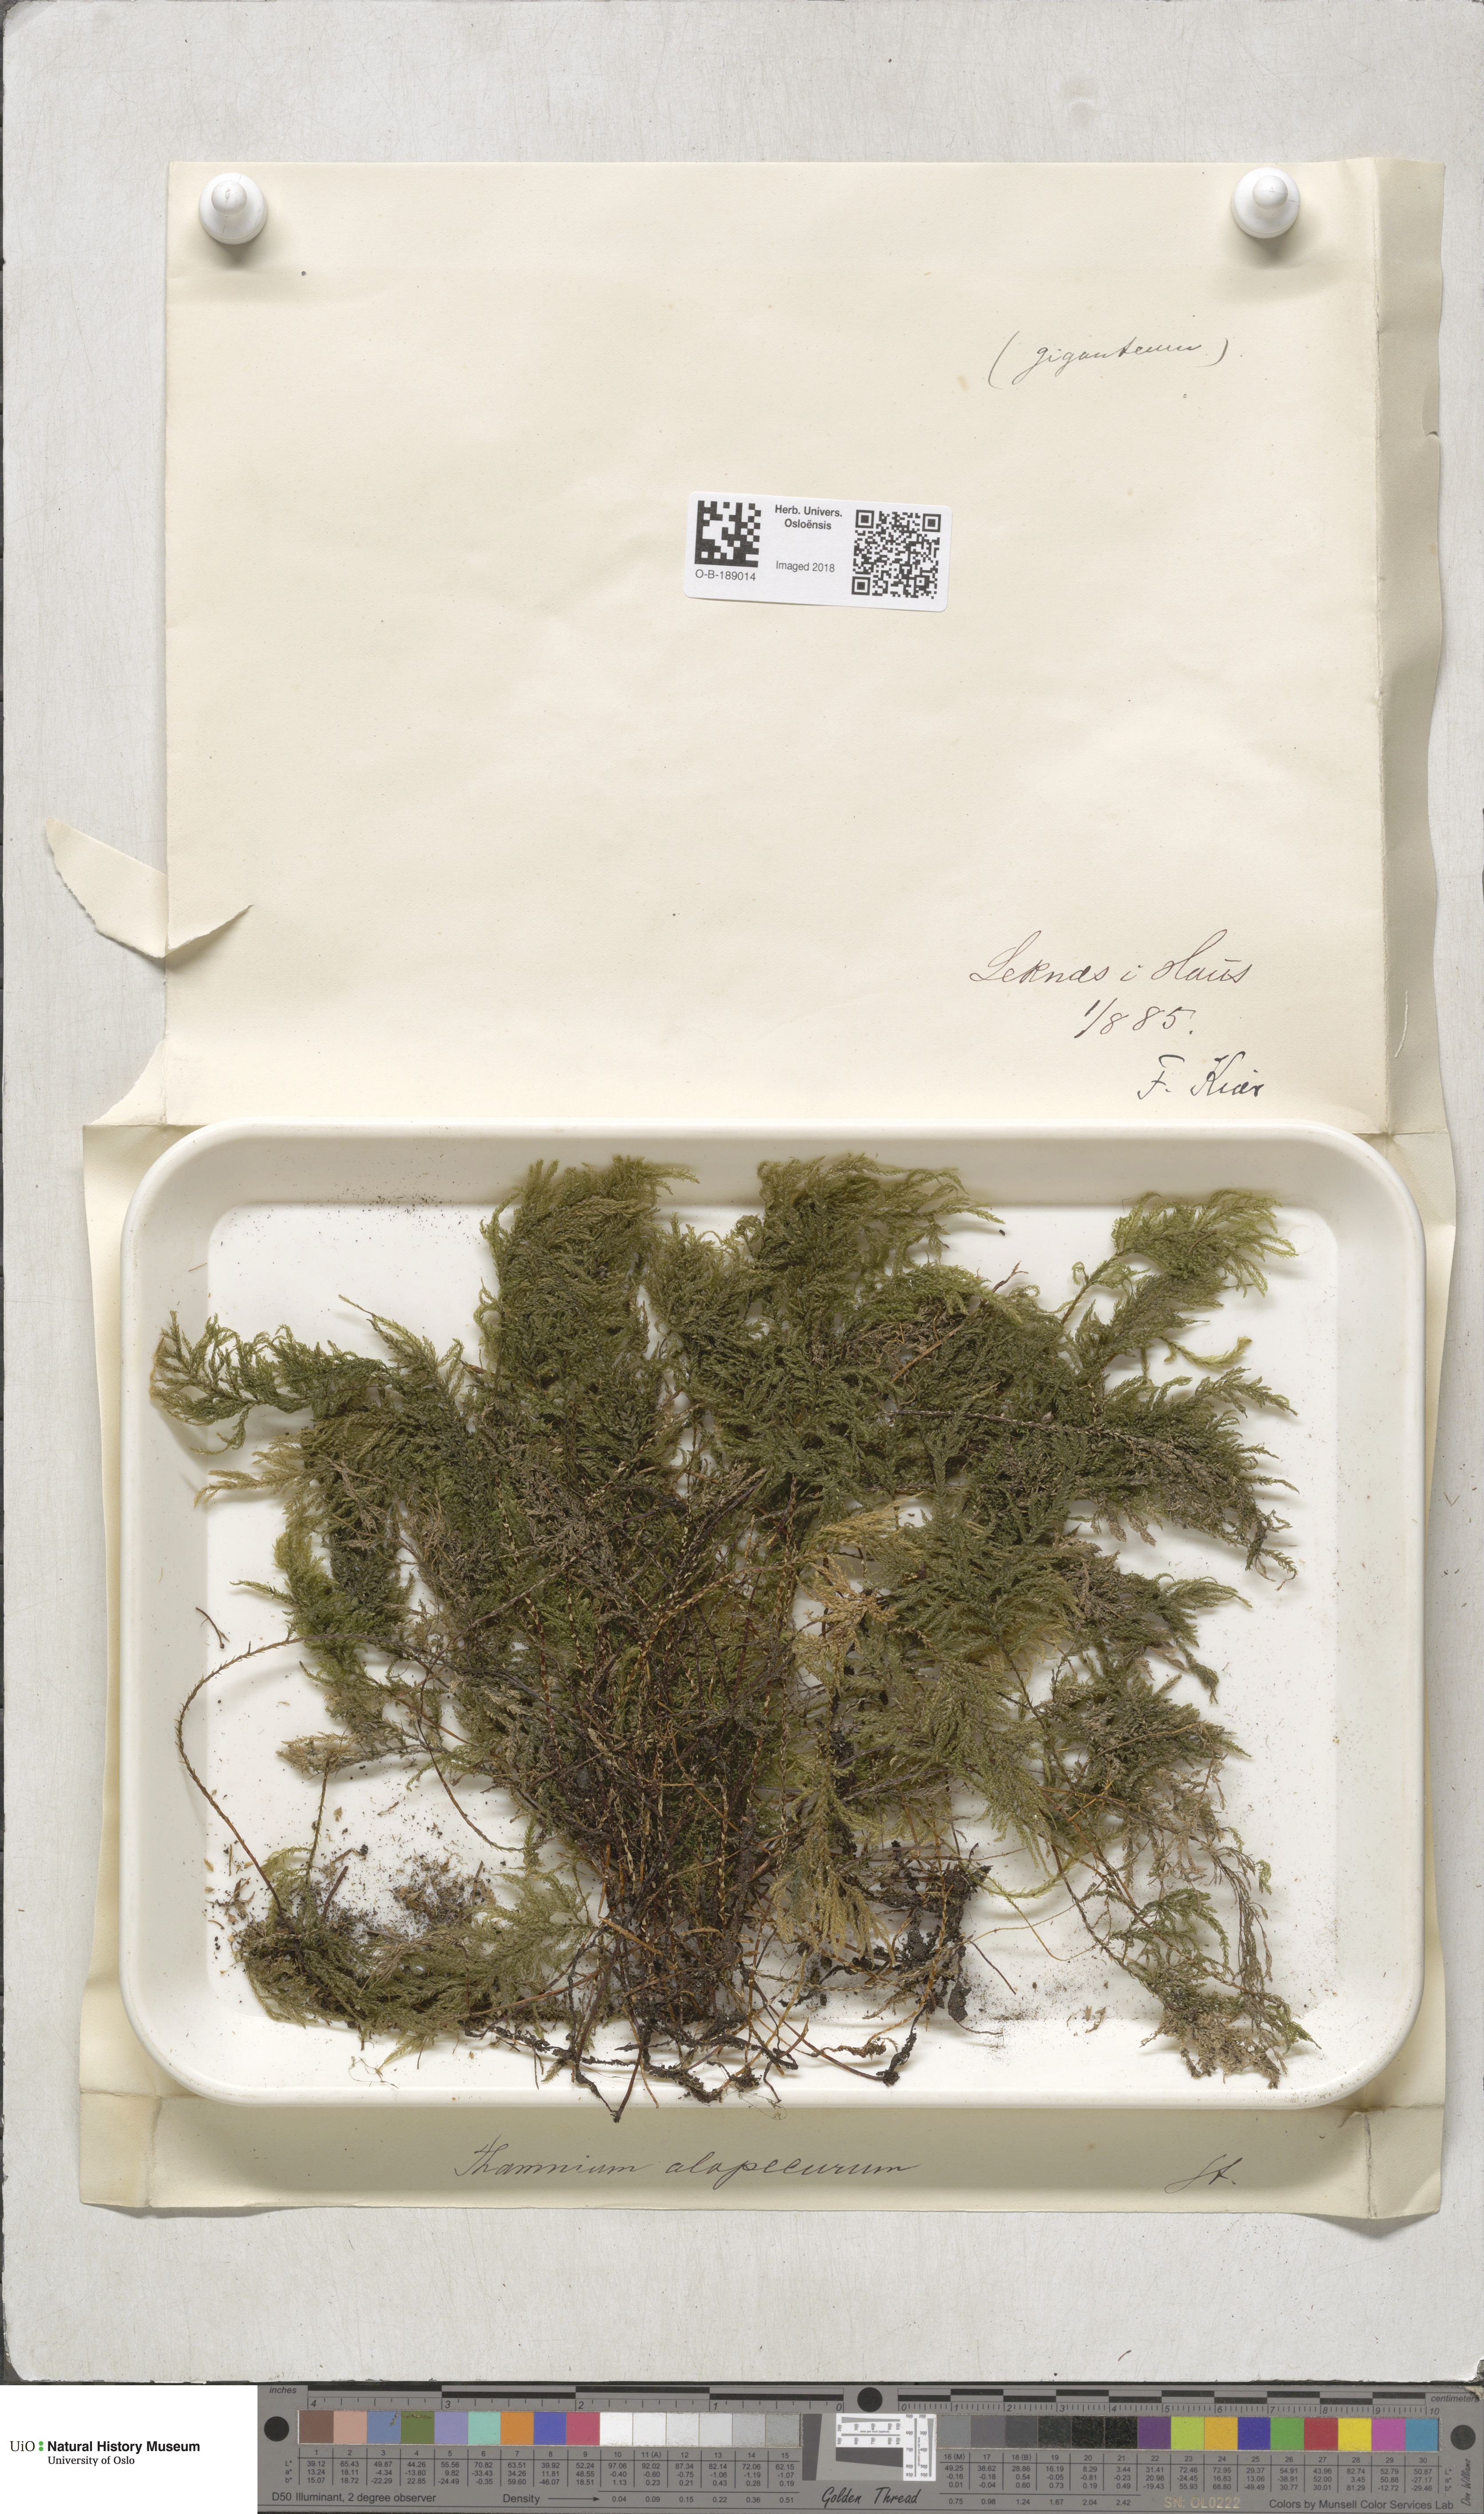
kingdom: Plantae
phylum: Bryophyta
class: Bryopsida
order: Hypnales
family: Neckeraceae
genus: Thamnobryum
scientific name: Thamnobryum alopecurum
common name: Fox-tail feather-moss
